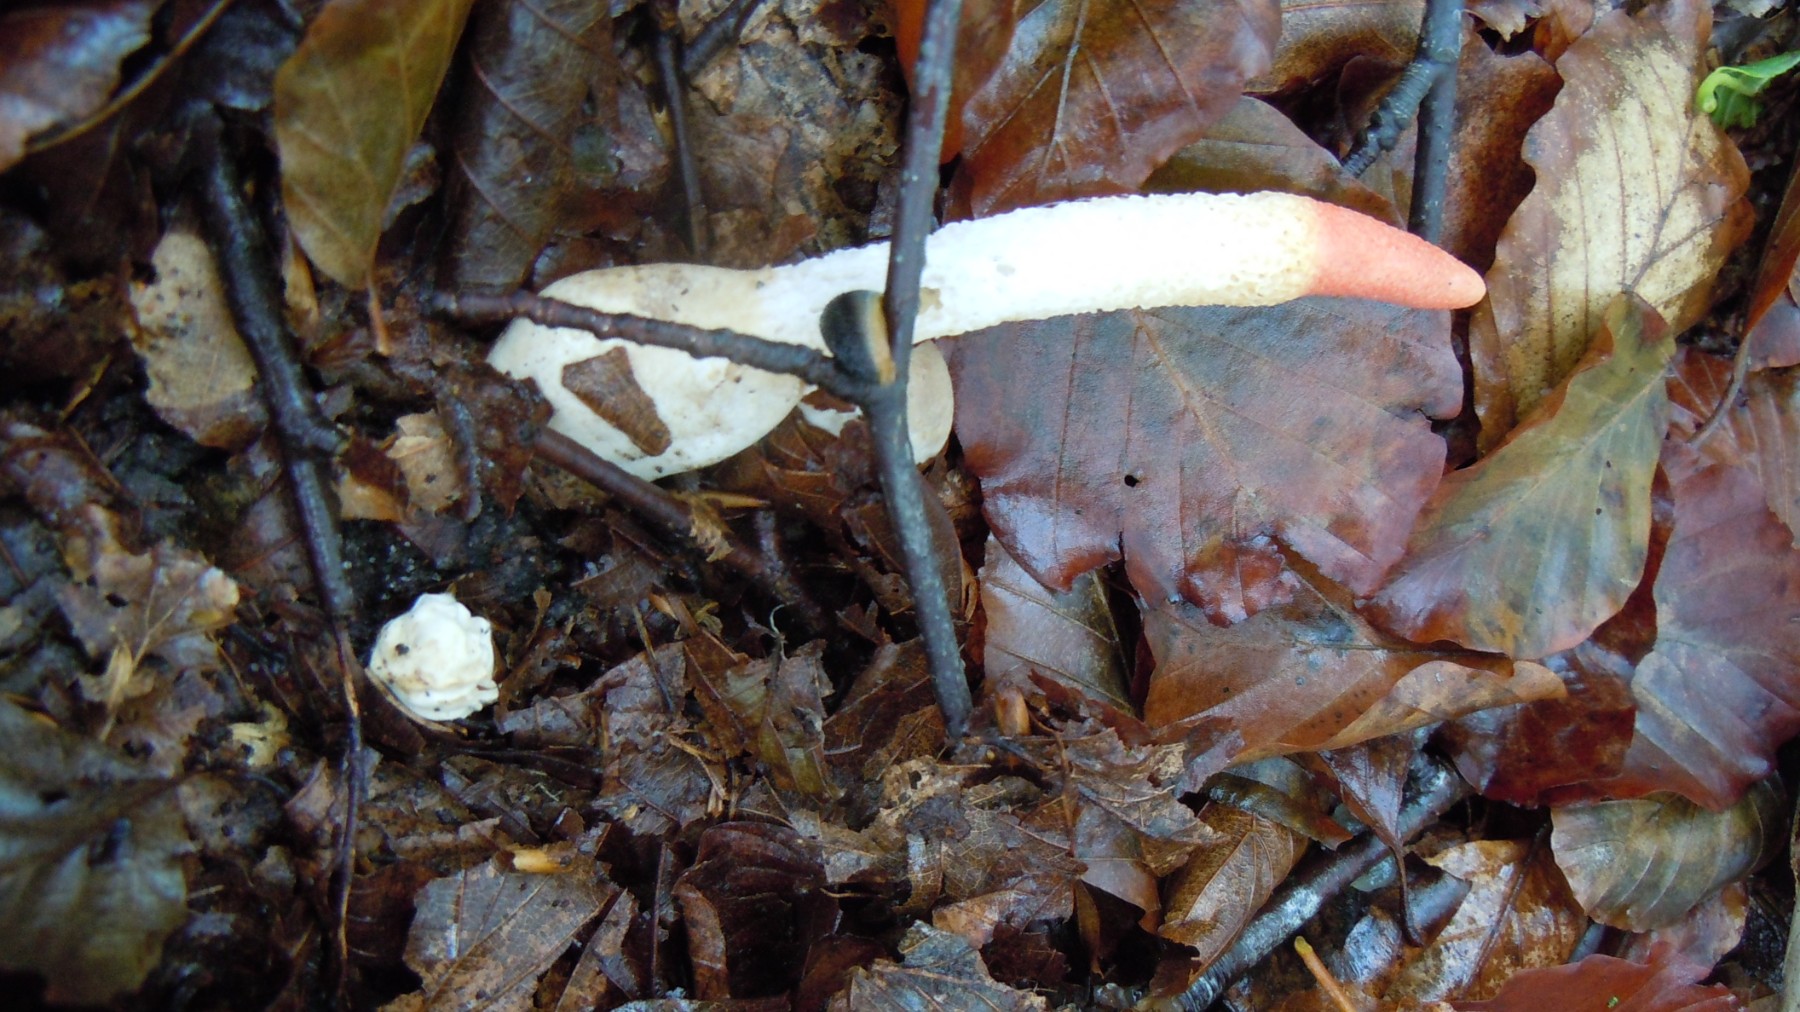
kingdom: Fungi
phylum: Basidiomycota
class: Agaricomycetes
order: Phallales
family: Phallaceae
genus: Mutinus
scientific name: Mutinus caninus
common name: hunde-stinksvamp
